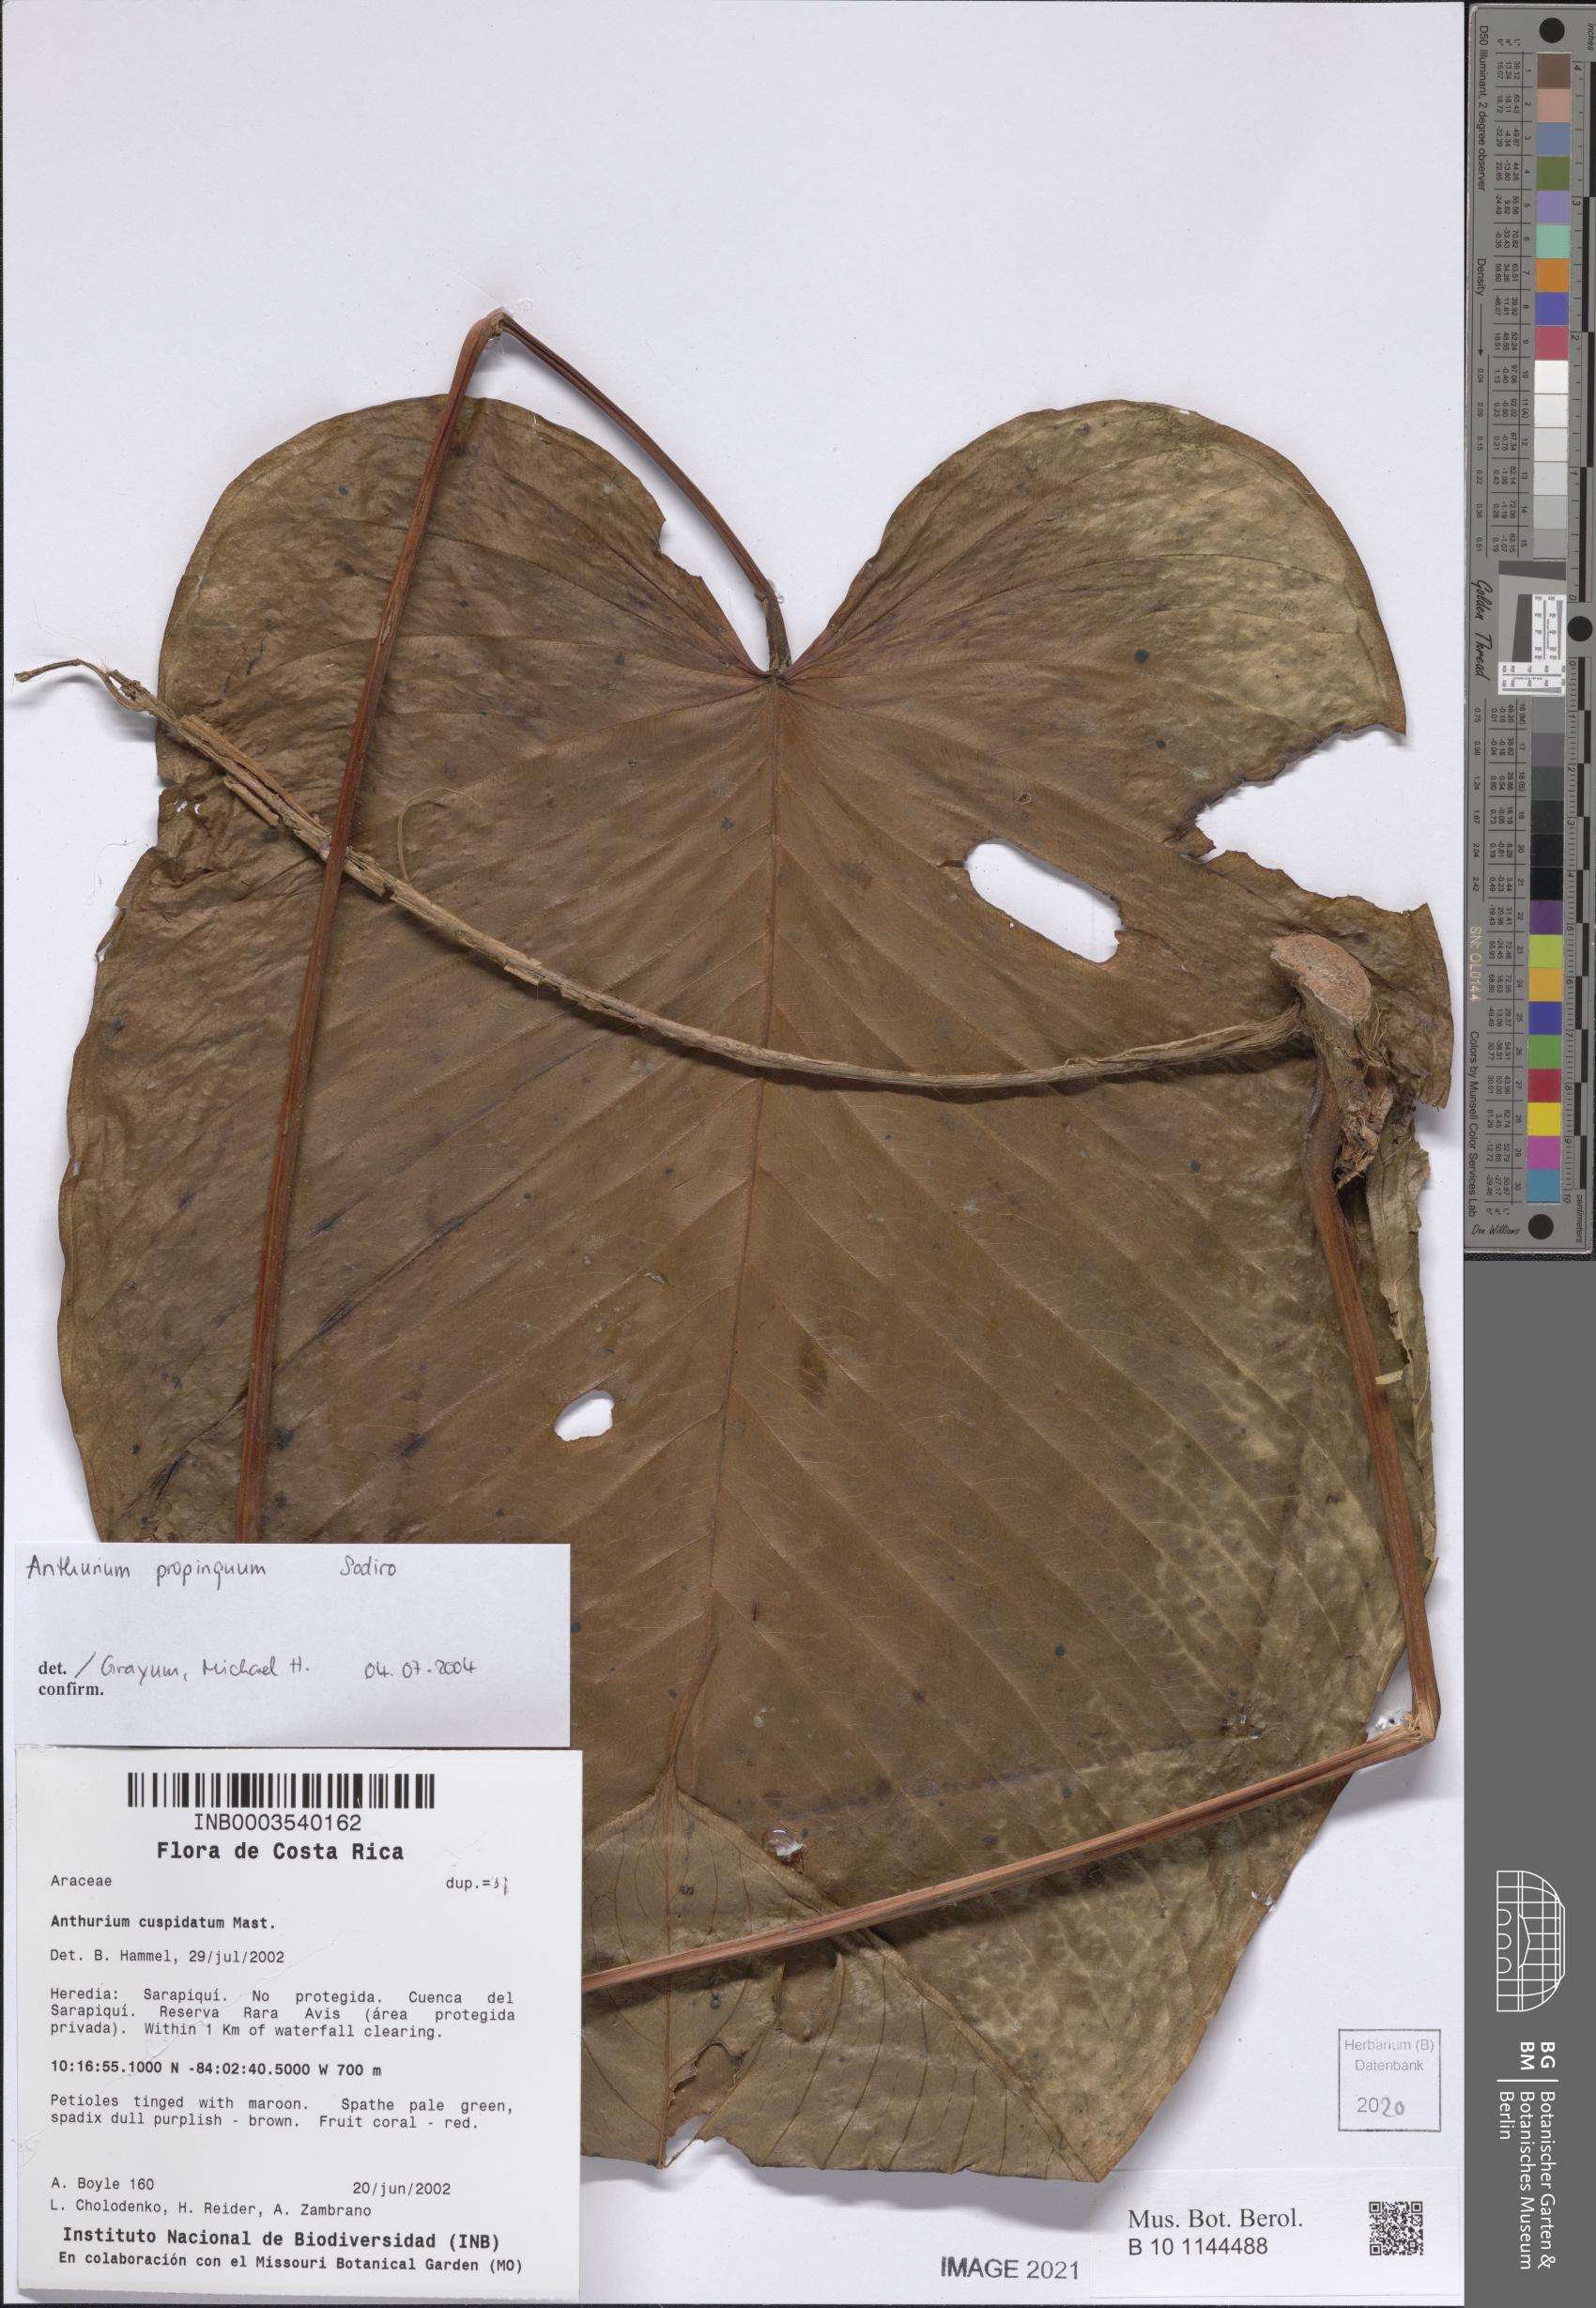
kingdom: Plantae
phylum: Tracheophyta
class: Liliopsida
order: Alismatales
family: Araceae
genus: Anthurium
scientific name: Anthurium cuspidatum
